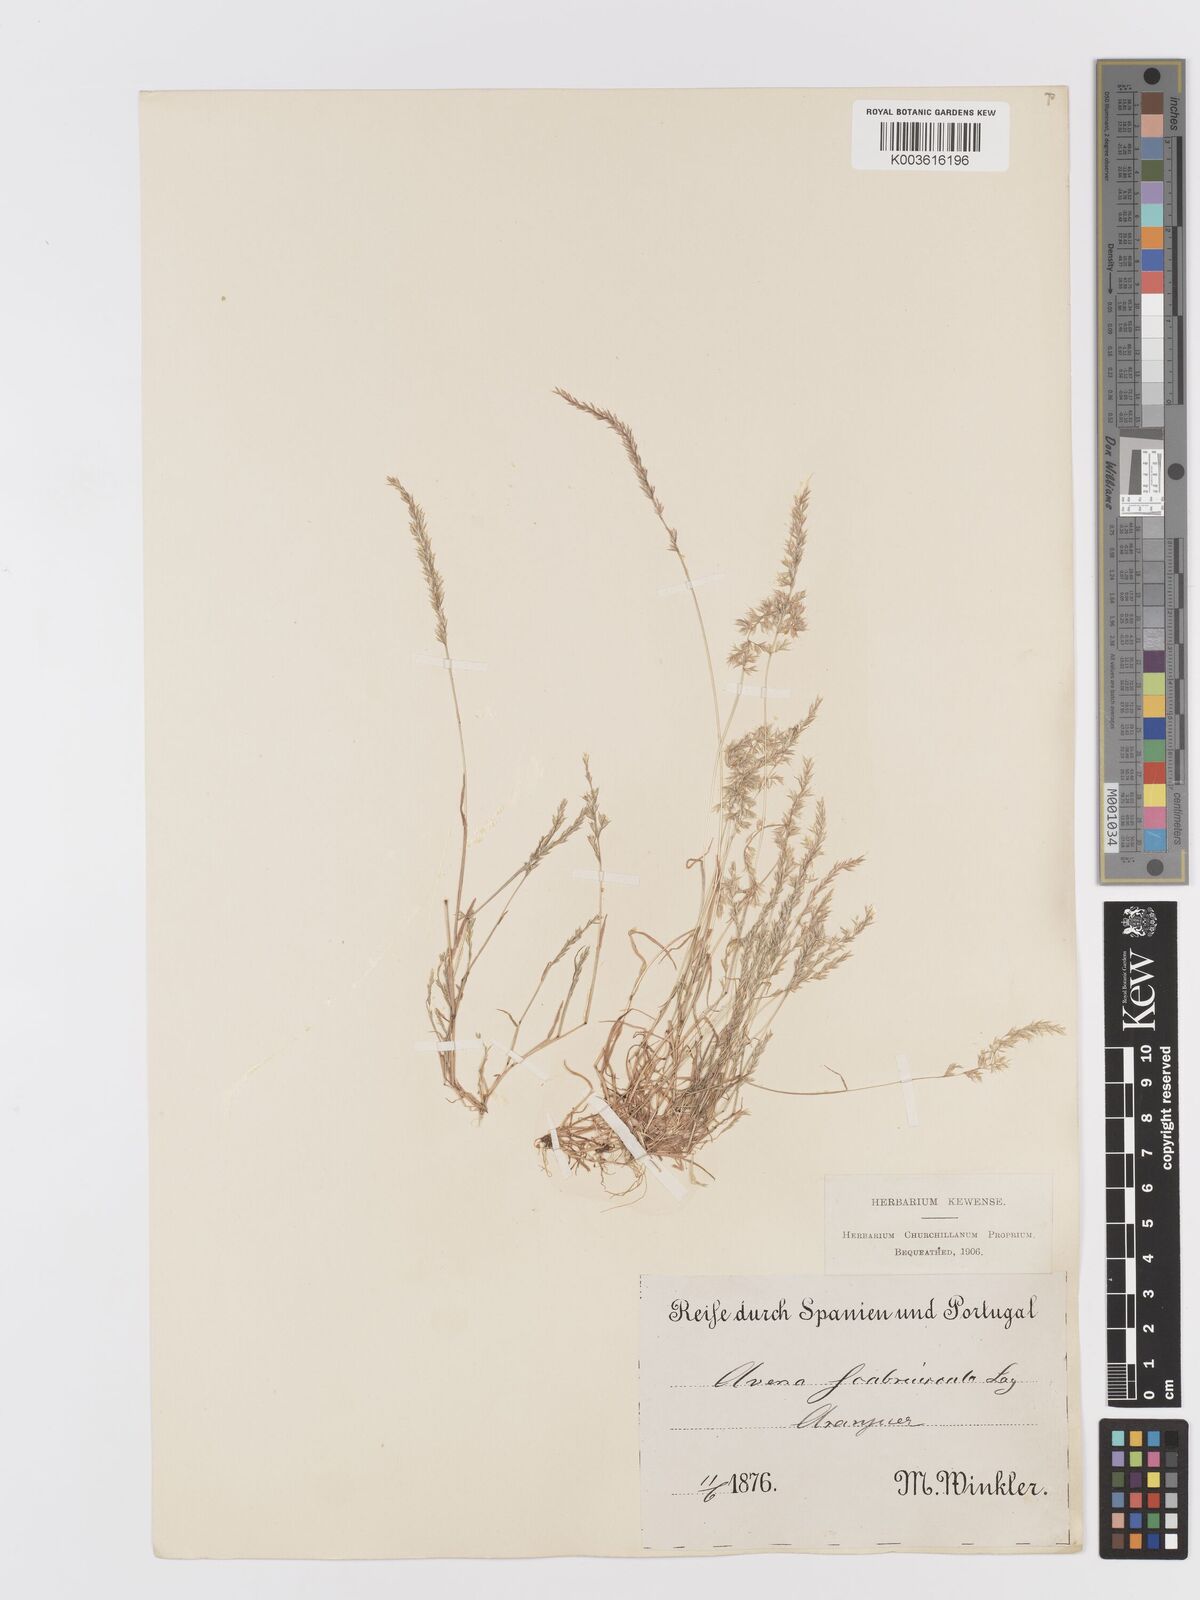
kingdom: Plantae
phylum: Tracheophyta
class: Liliopsida
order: Poales
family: Poaceae
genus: Trisetaria
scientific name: Trisetaria scabriuscula
